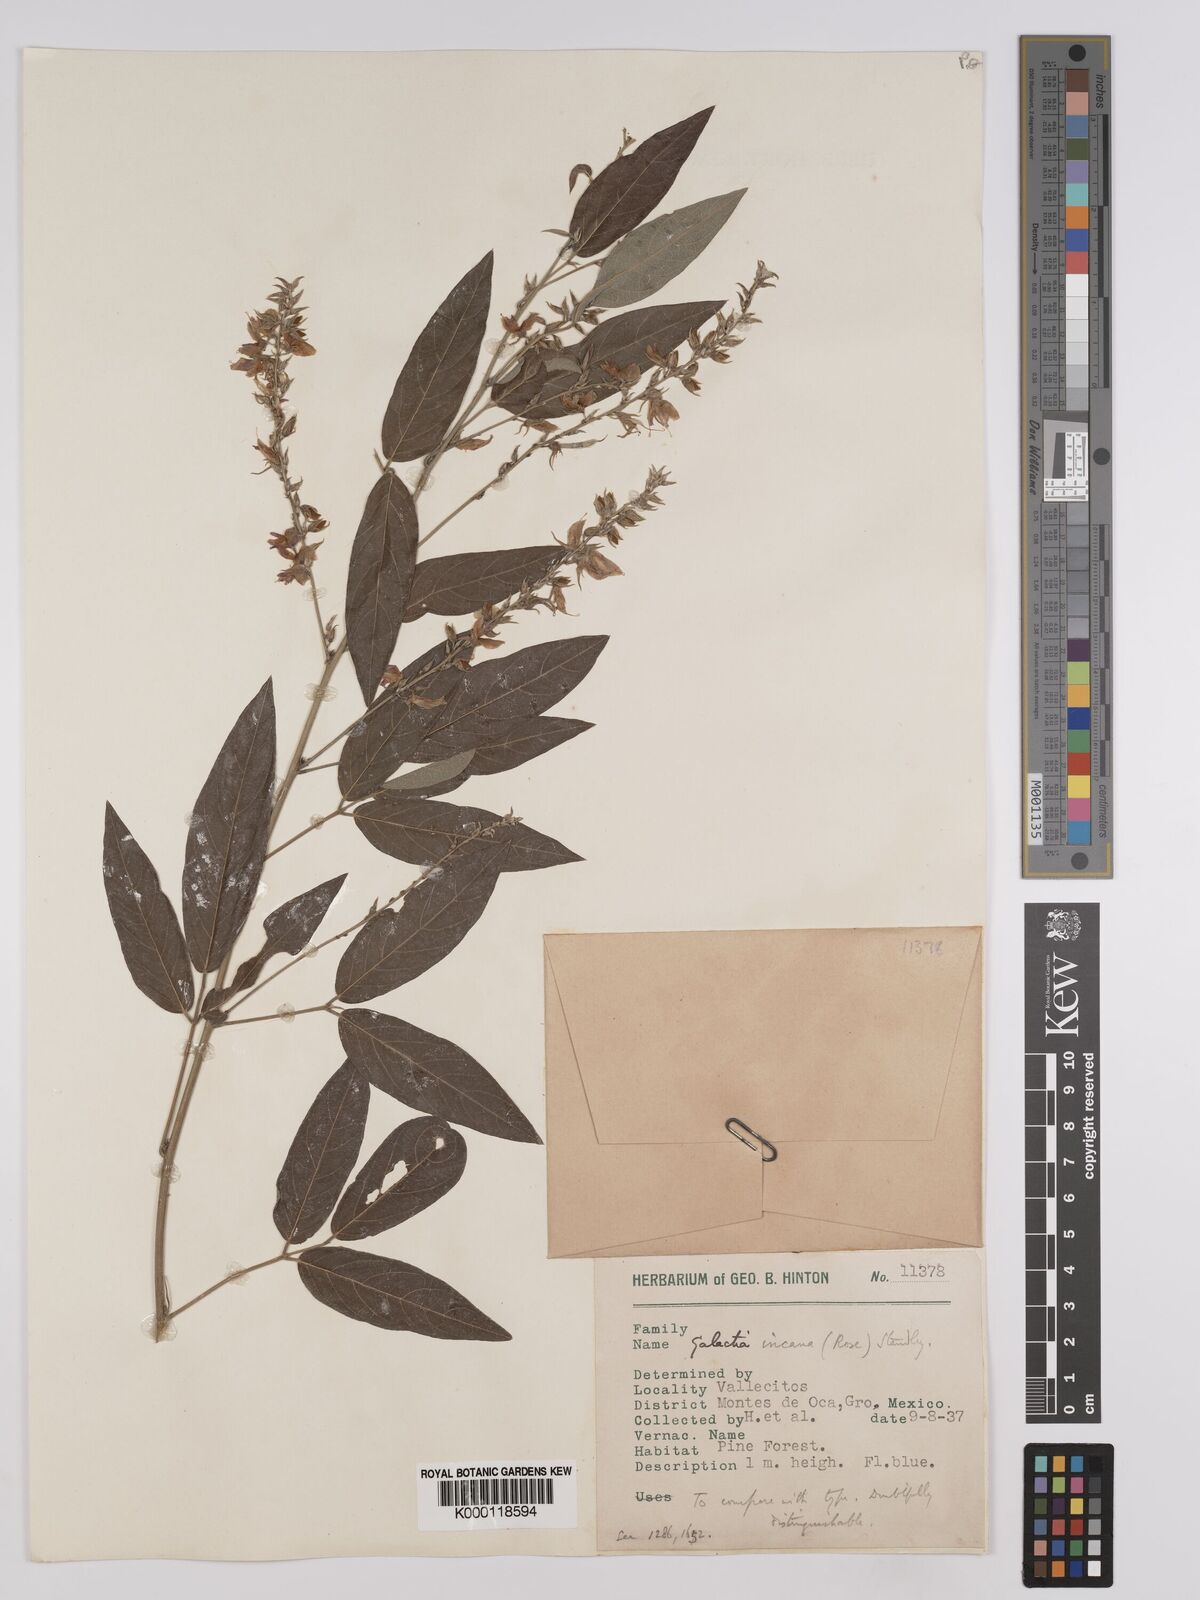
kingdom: Plantae
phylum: Tracheophyta
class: Magnoliopsida
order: Fabales
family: Fabaceae
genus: Galactia
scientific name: Galactia incana
